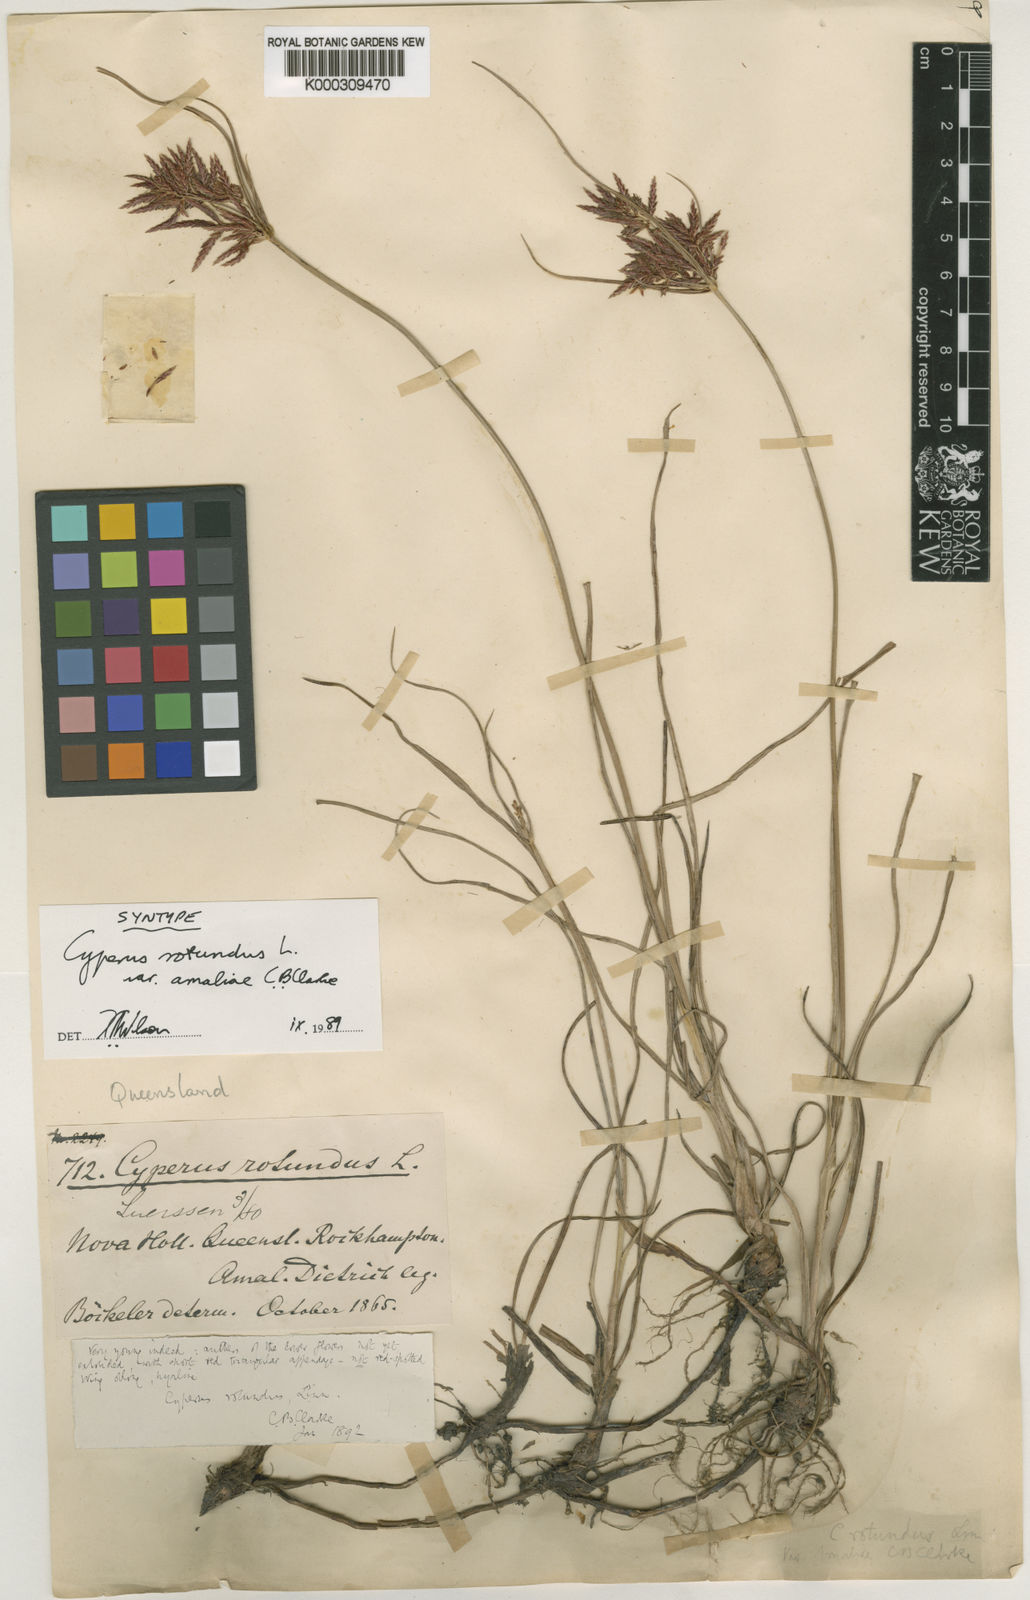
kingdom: Plantae
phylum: Tracheophyta
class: Liliopsida
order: Poales
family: Cyperaceae
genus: Cyperus
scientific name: Cyperus rotundus
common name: Nutgrass
